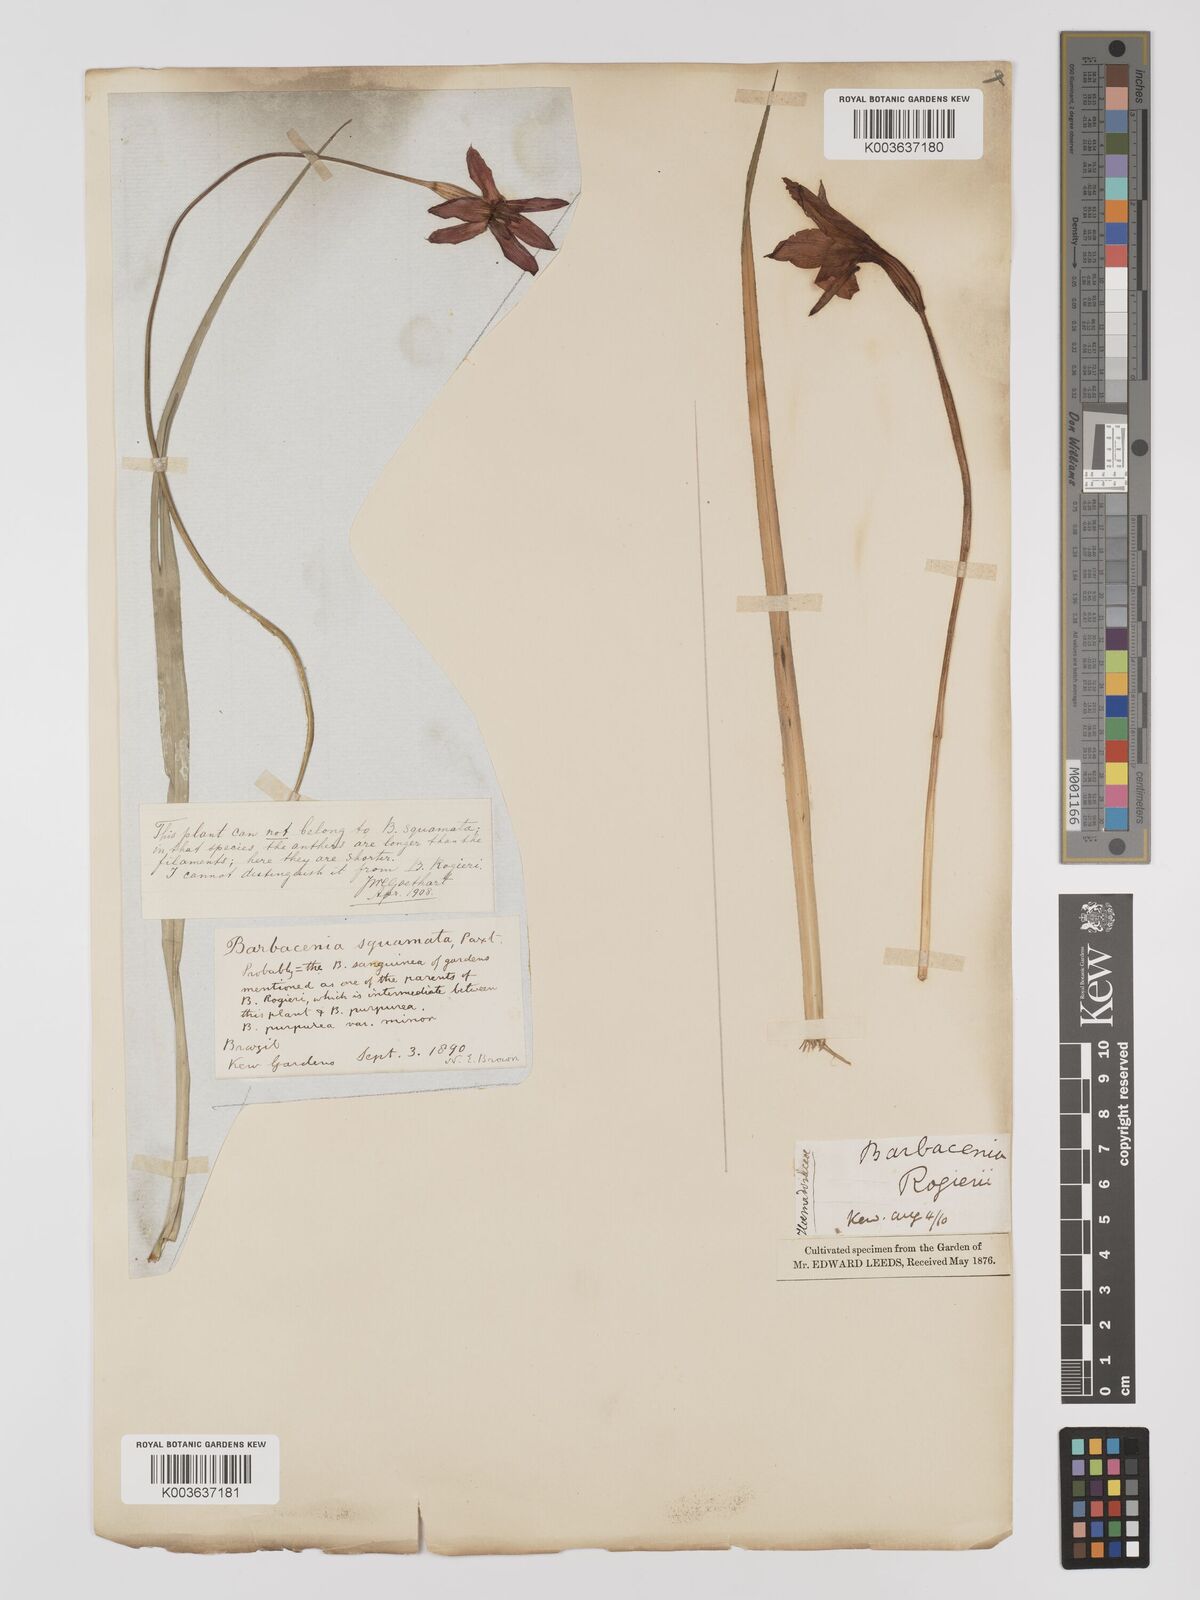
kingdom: Plantae
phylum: Tracheophyta
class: Liliopsida
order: Pandanales
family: Velloziaceae
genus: Barbacenia
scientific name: Barbacenia rogieri
